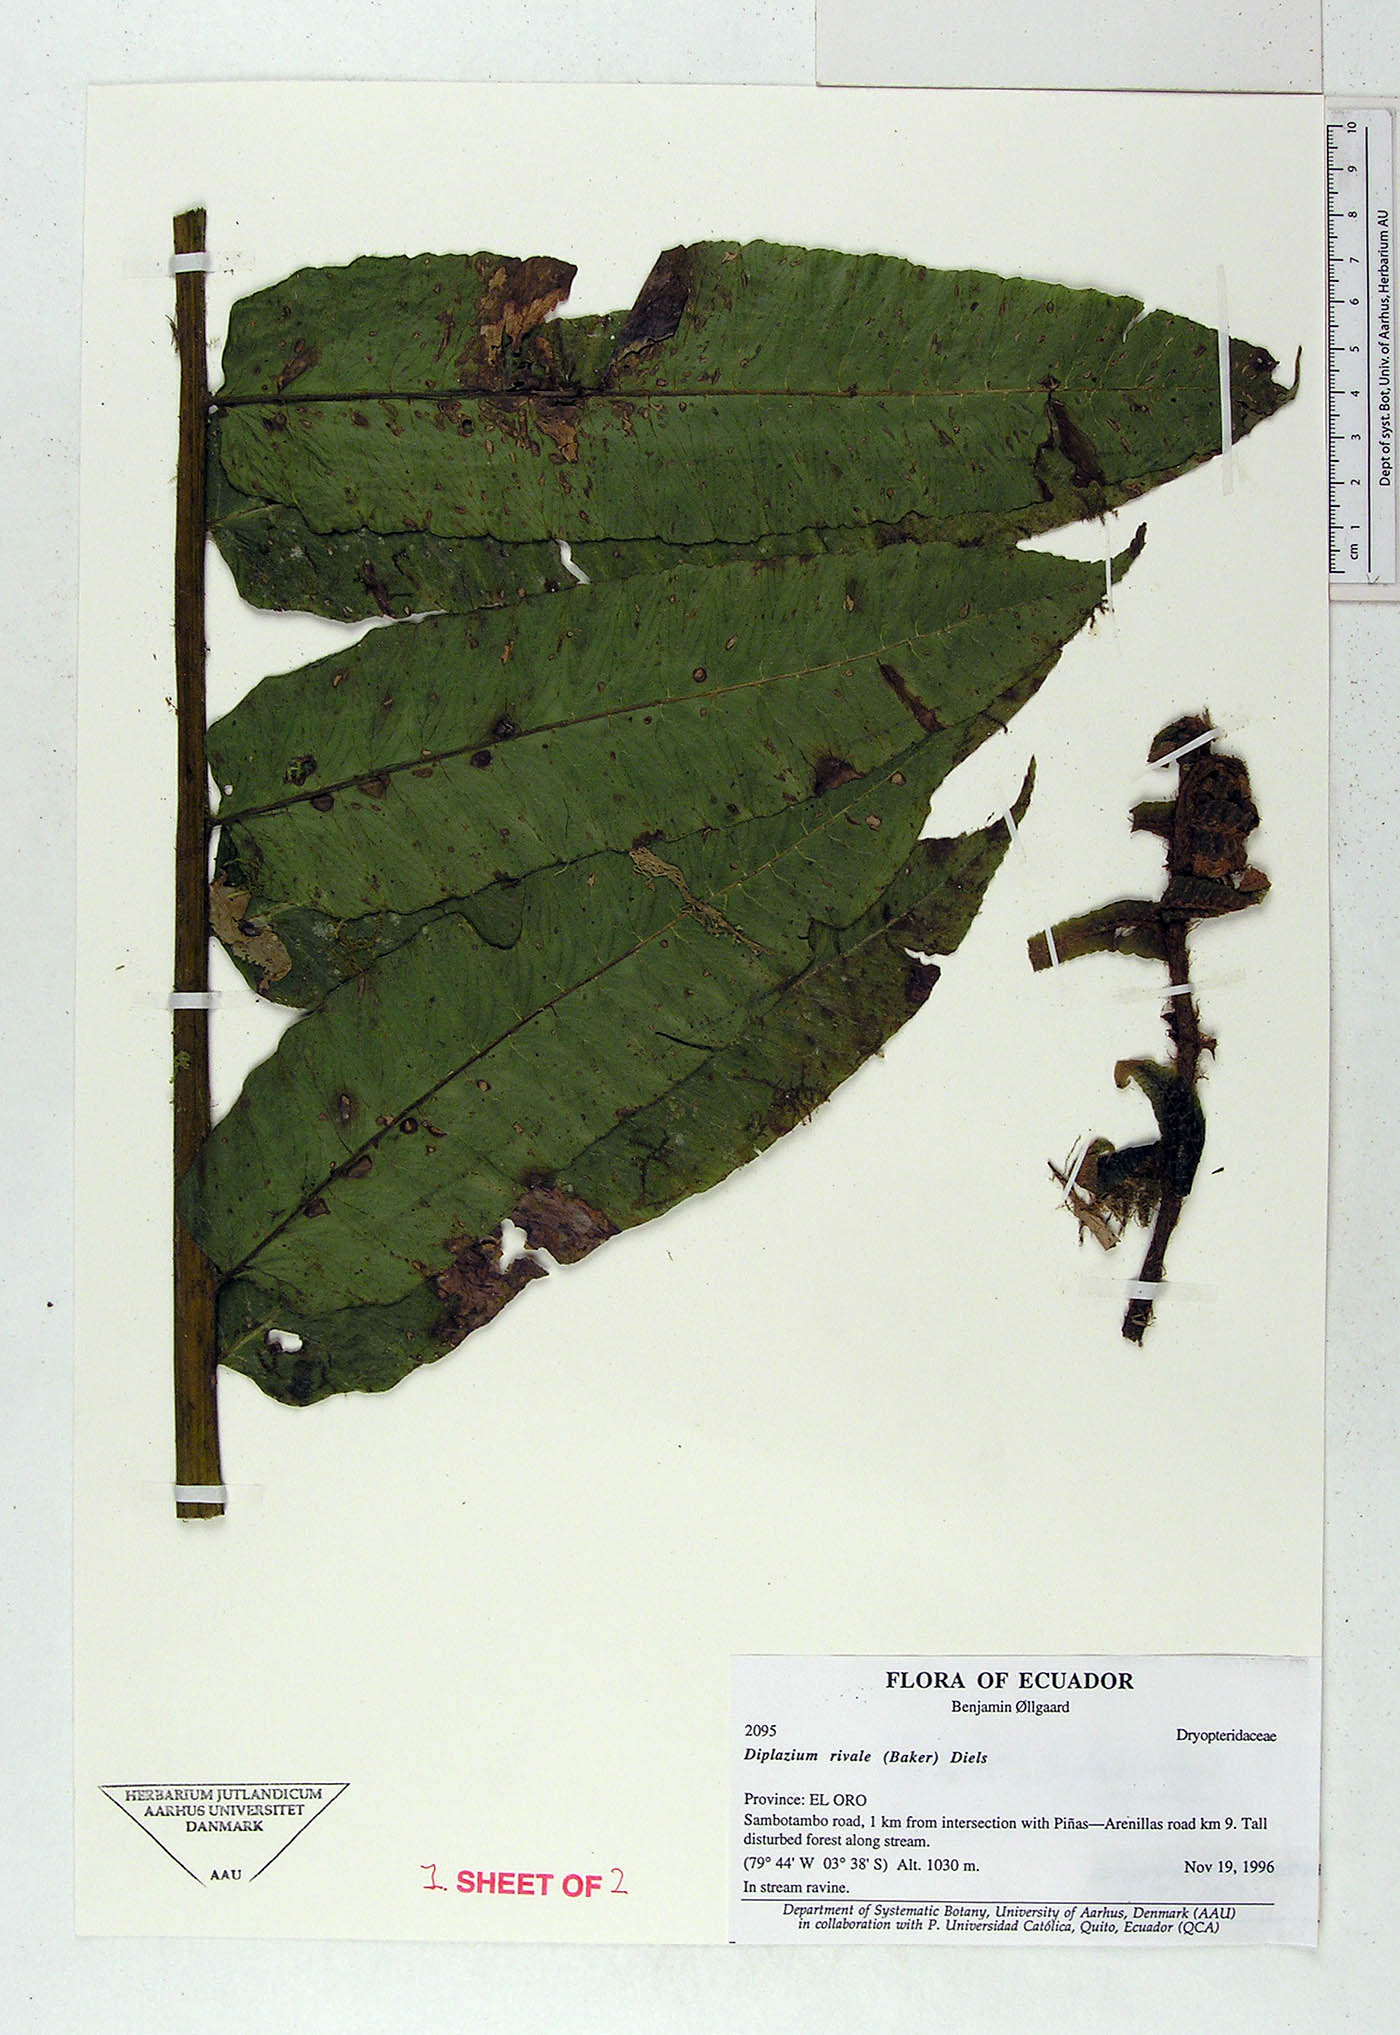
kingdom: Plantae
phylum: Tracheophyta
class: Polypodiopsida
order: Polypodiales
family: Athyriaceae
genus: Diplazium
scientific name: Diplazium rivale
